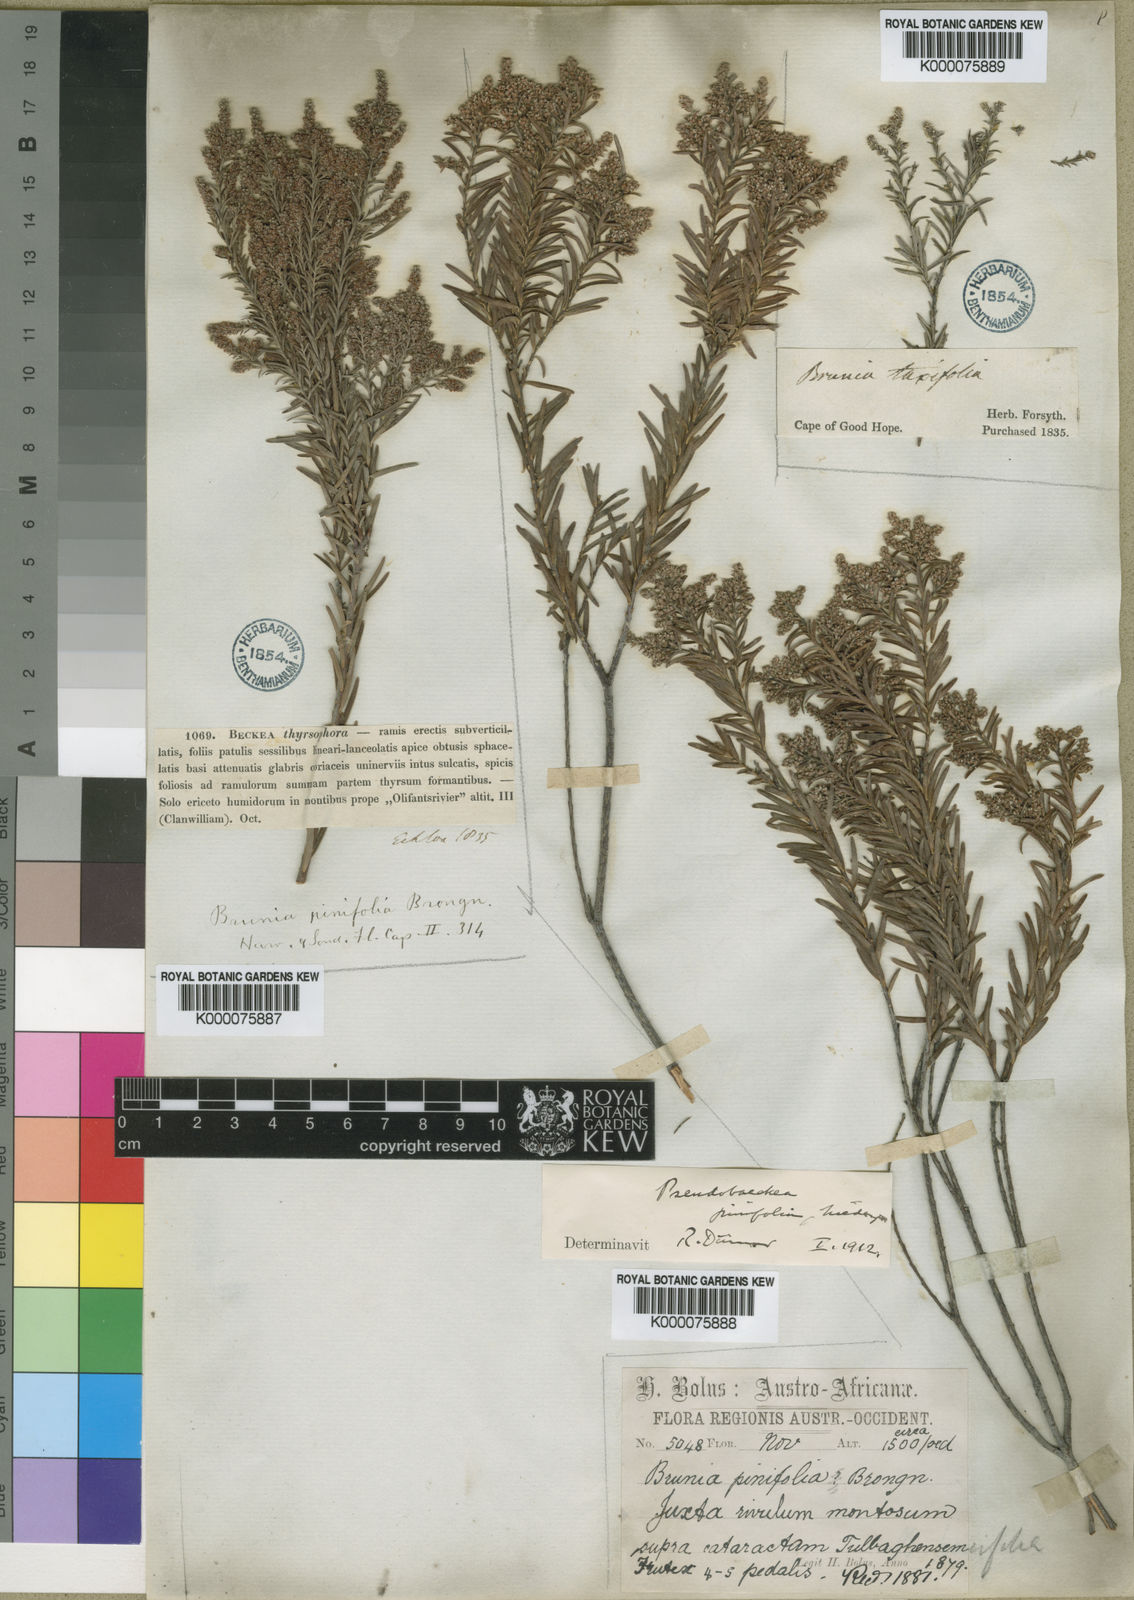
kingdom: Plantae
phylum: Tracheophyta
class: Magnoliopsida
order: Bruniales
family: Bruniaceae
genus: Brunia
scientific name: Brunia africana
